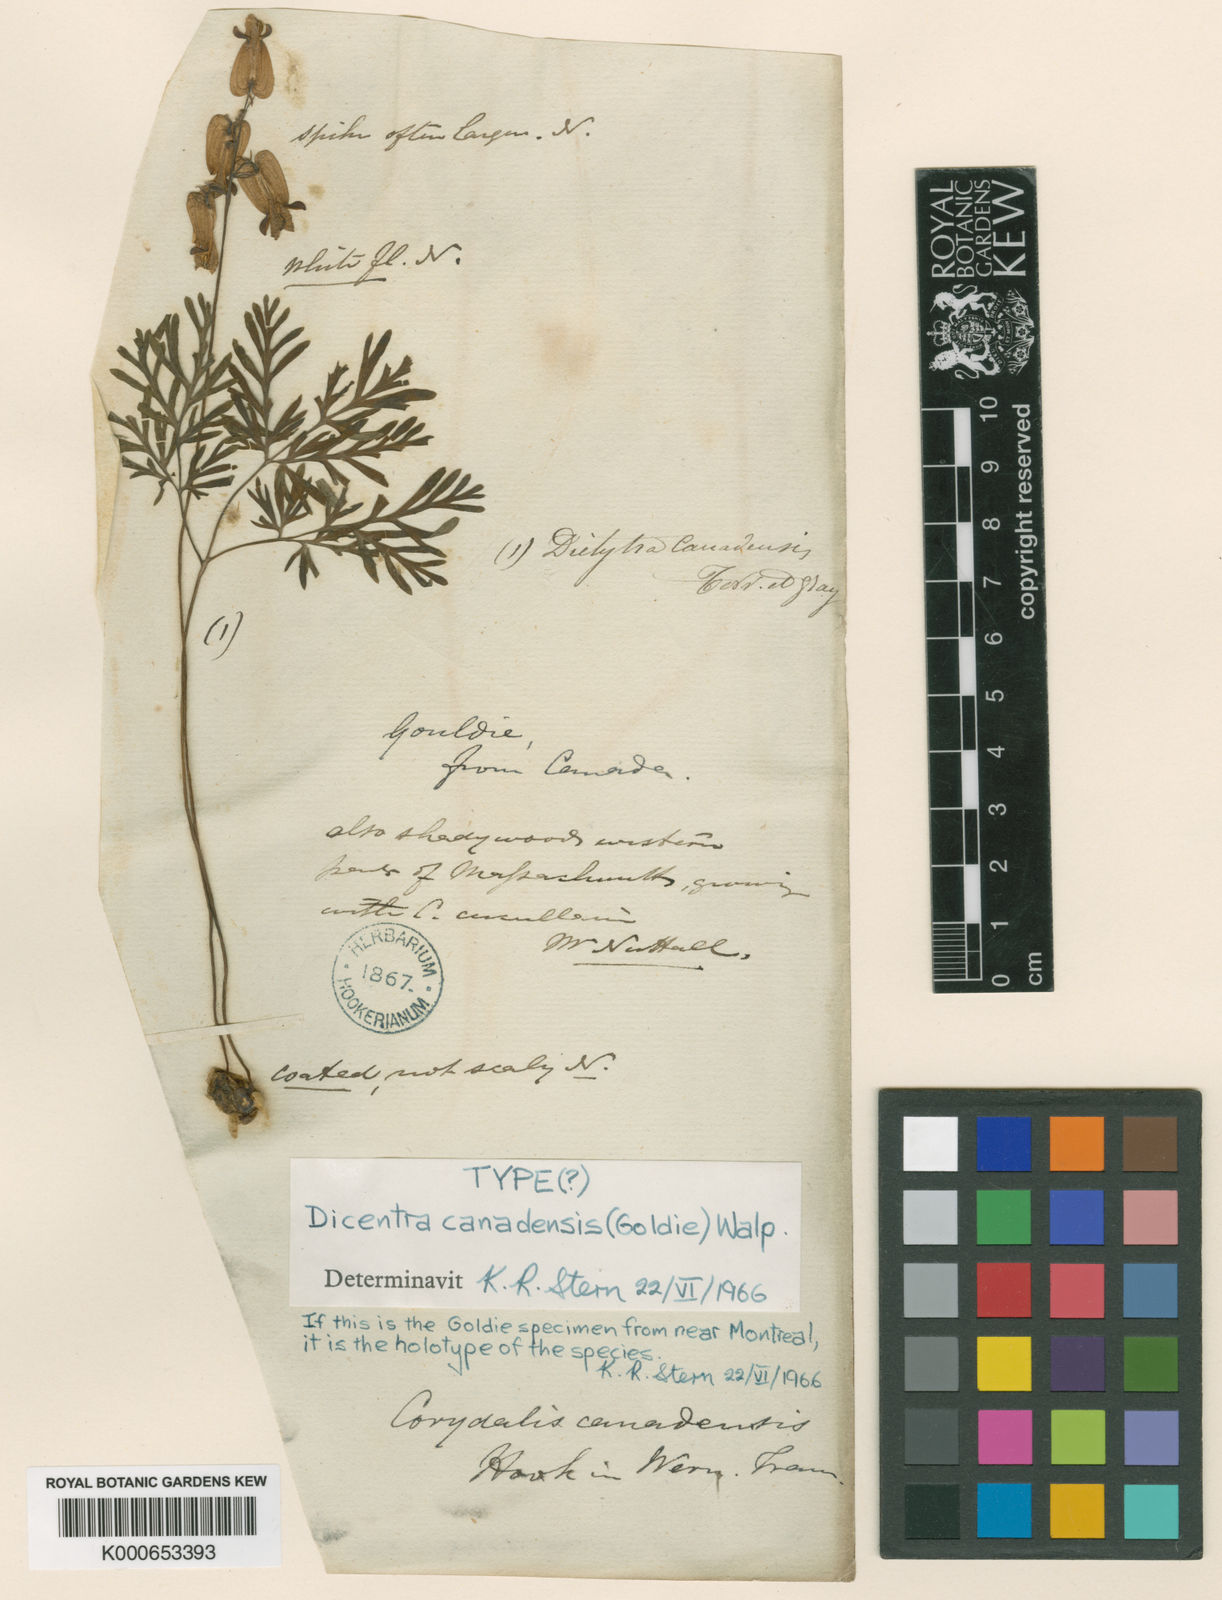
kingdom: Plantae
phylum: Tracheophyta
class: Magnoliopsida
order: Ranunculales
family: Papaveraceae
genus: Dicentra
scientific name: Dicentra canadensis
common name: Squirrel-corn
